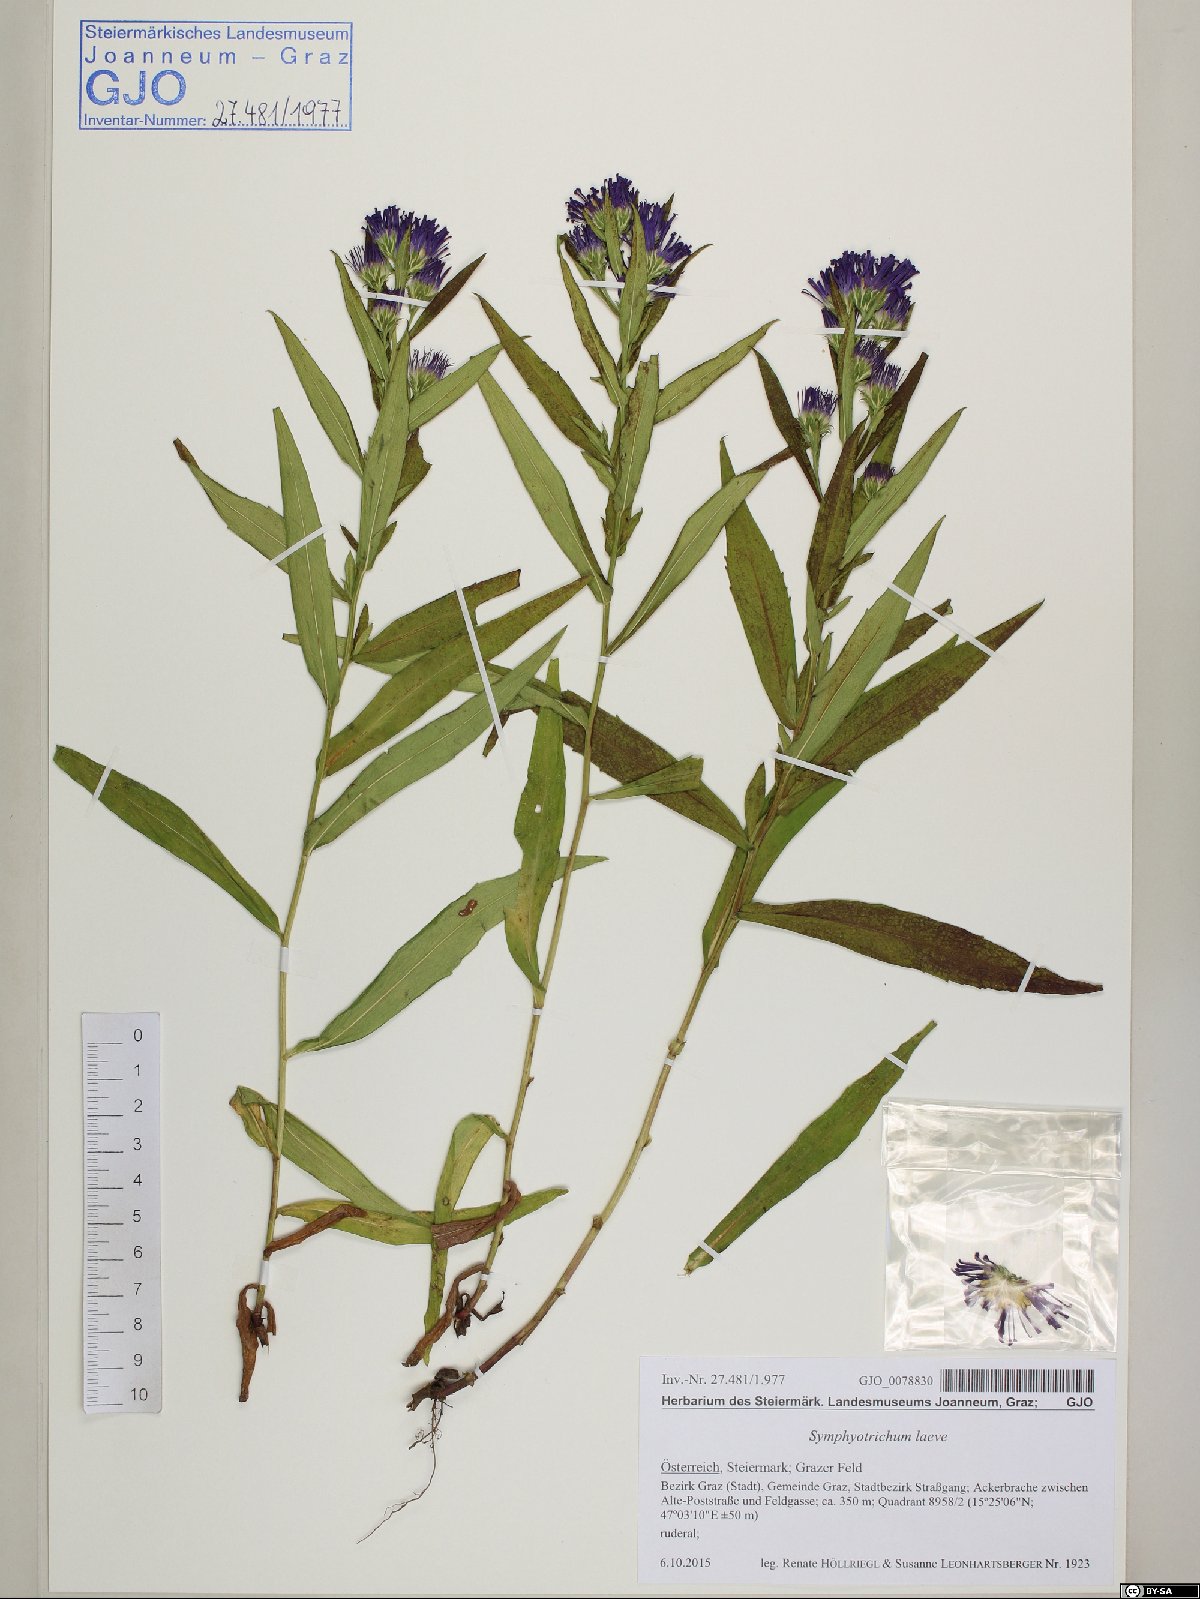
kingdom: Plantae
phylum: Tracheophyta
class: Magnoliopsida
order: Asterales
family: Asteraceae
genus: Symphyotrichum
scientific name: Symphyotrichum laeve
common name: Glaucous aster
